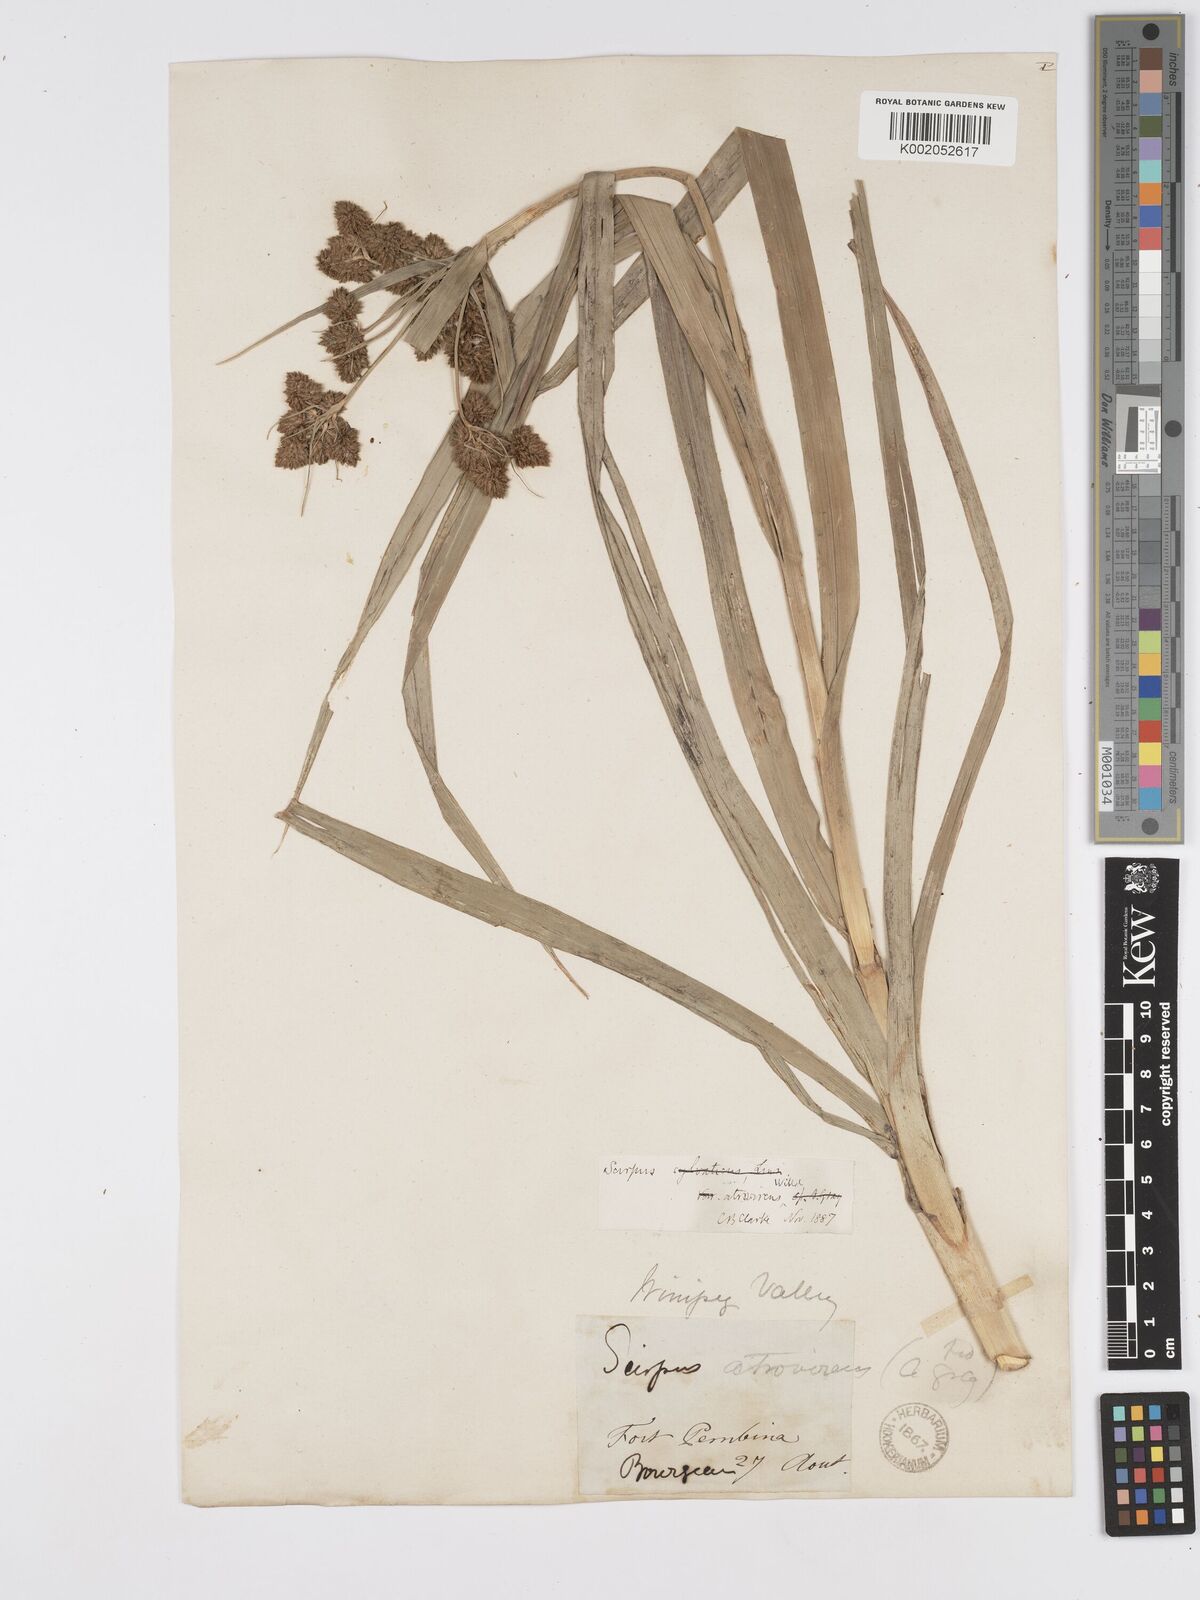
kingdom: Plantae
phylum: Tracheophyta
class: Liliopsida
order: Poales
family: Cyperaceae
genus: Scirpus
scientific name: Scirpus atrovirens
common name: Black bulrush
